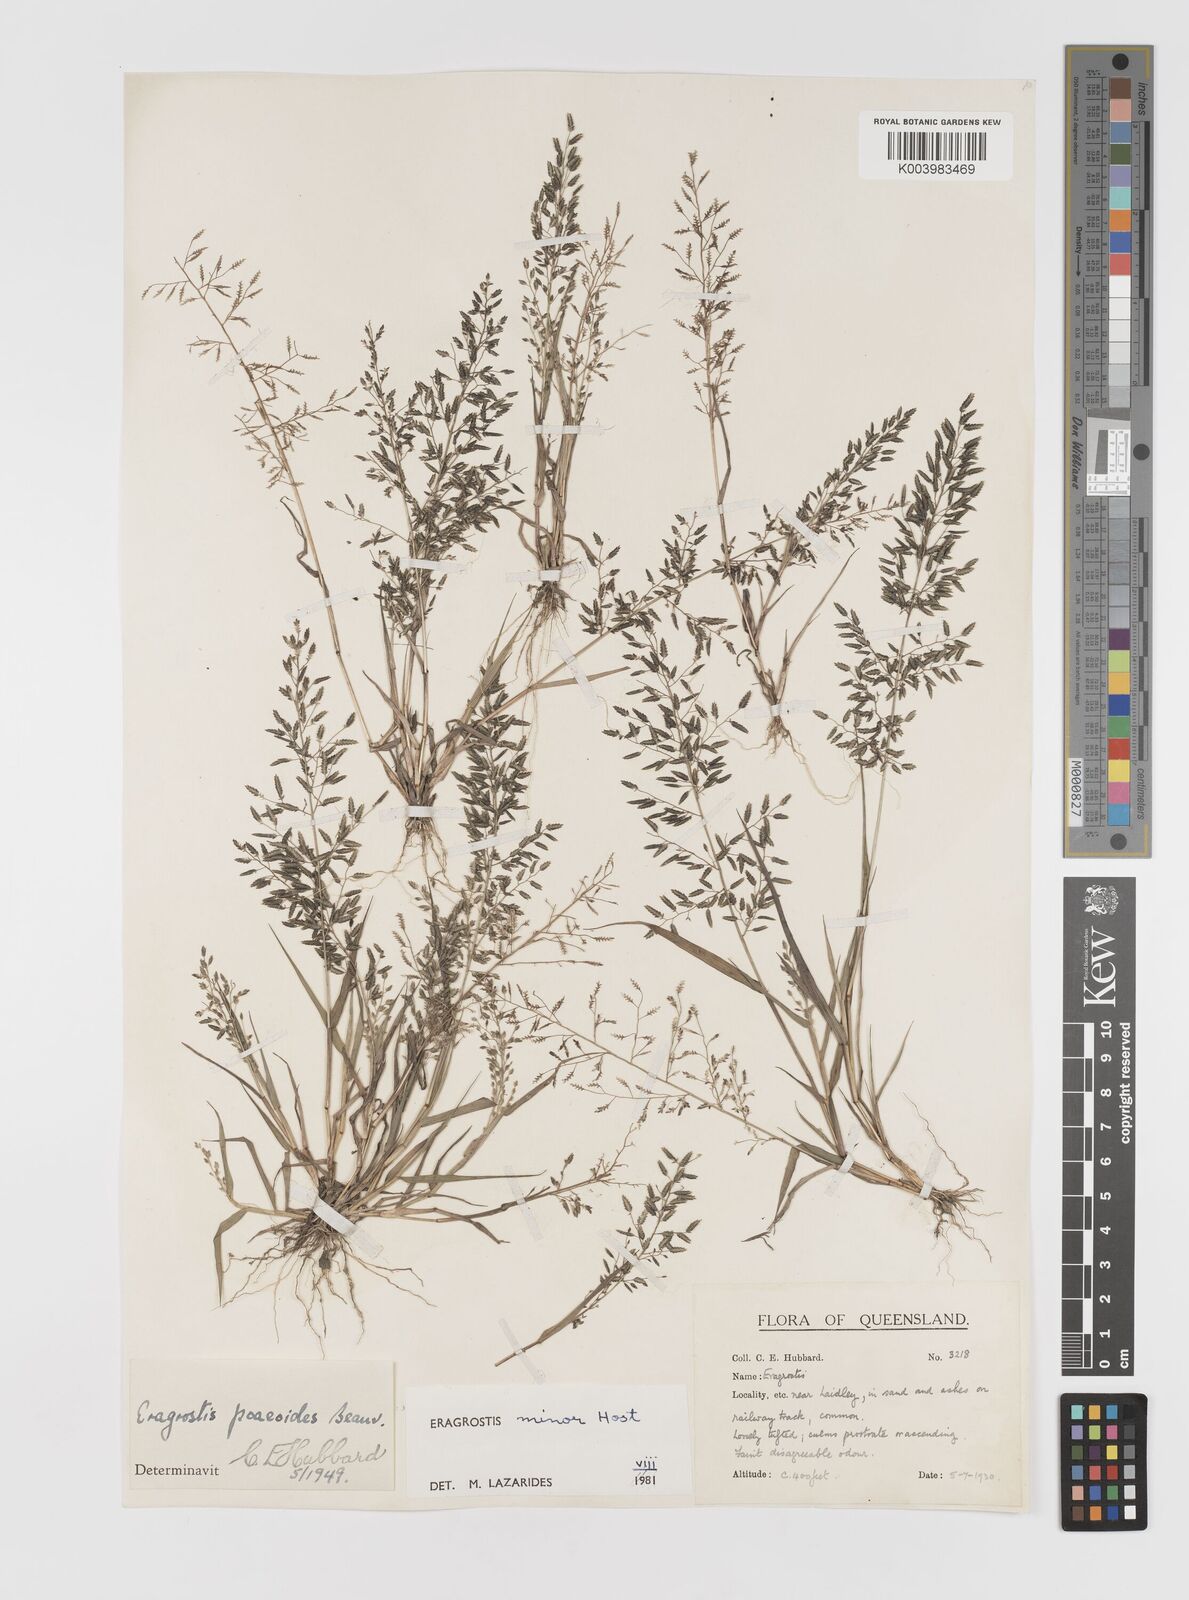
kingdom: Plantae
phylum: Tracheophyta
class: Liliopsida
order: Poales
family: Poaceae
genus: Eragrostis
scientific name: Eragrostis minor
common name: Small love-grass
